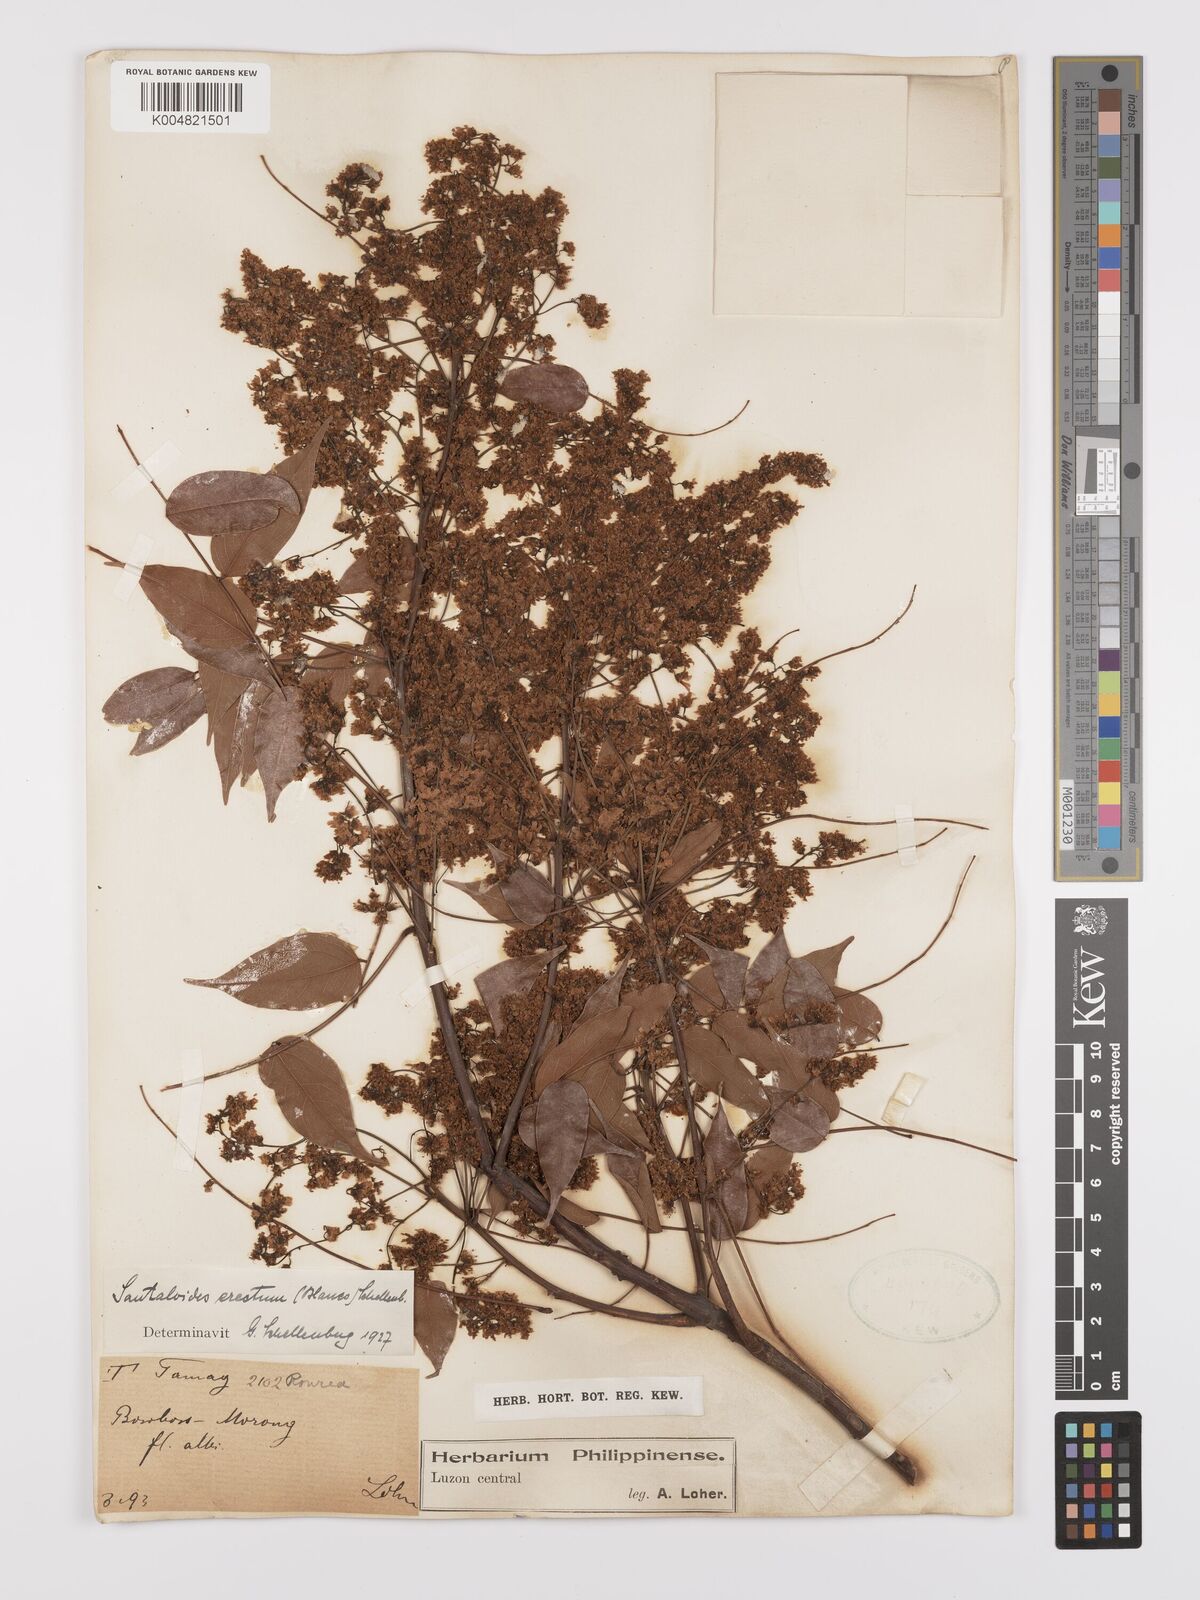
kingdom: Plantae
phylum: Tracheophyta
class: Magnoliopsida
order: Oxalidales
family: Connaraceae
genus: Rourea
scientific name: Rourea minor
